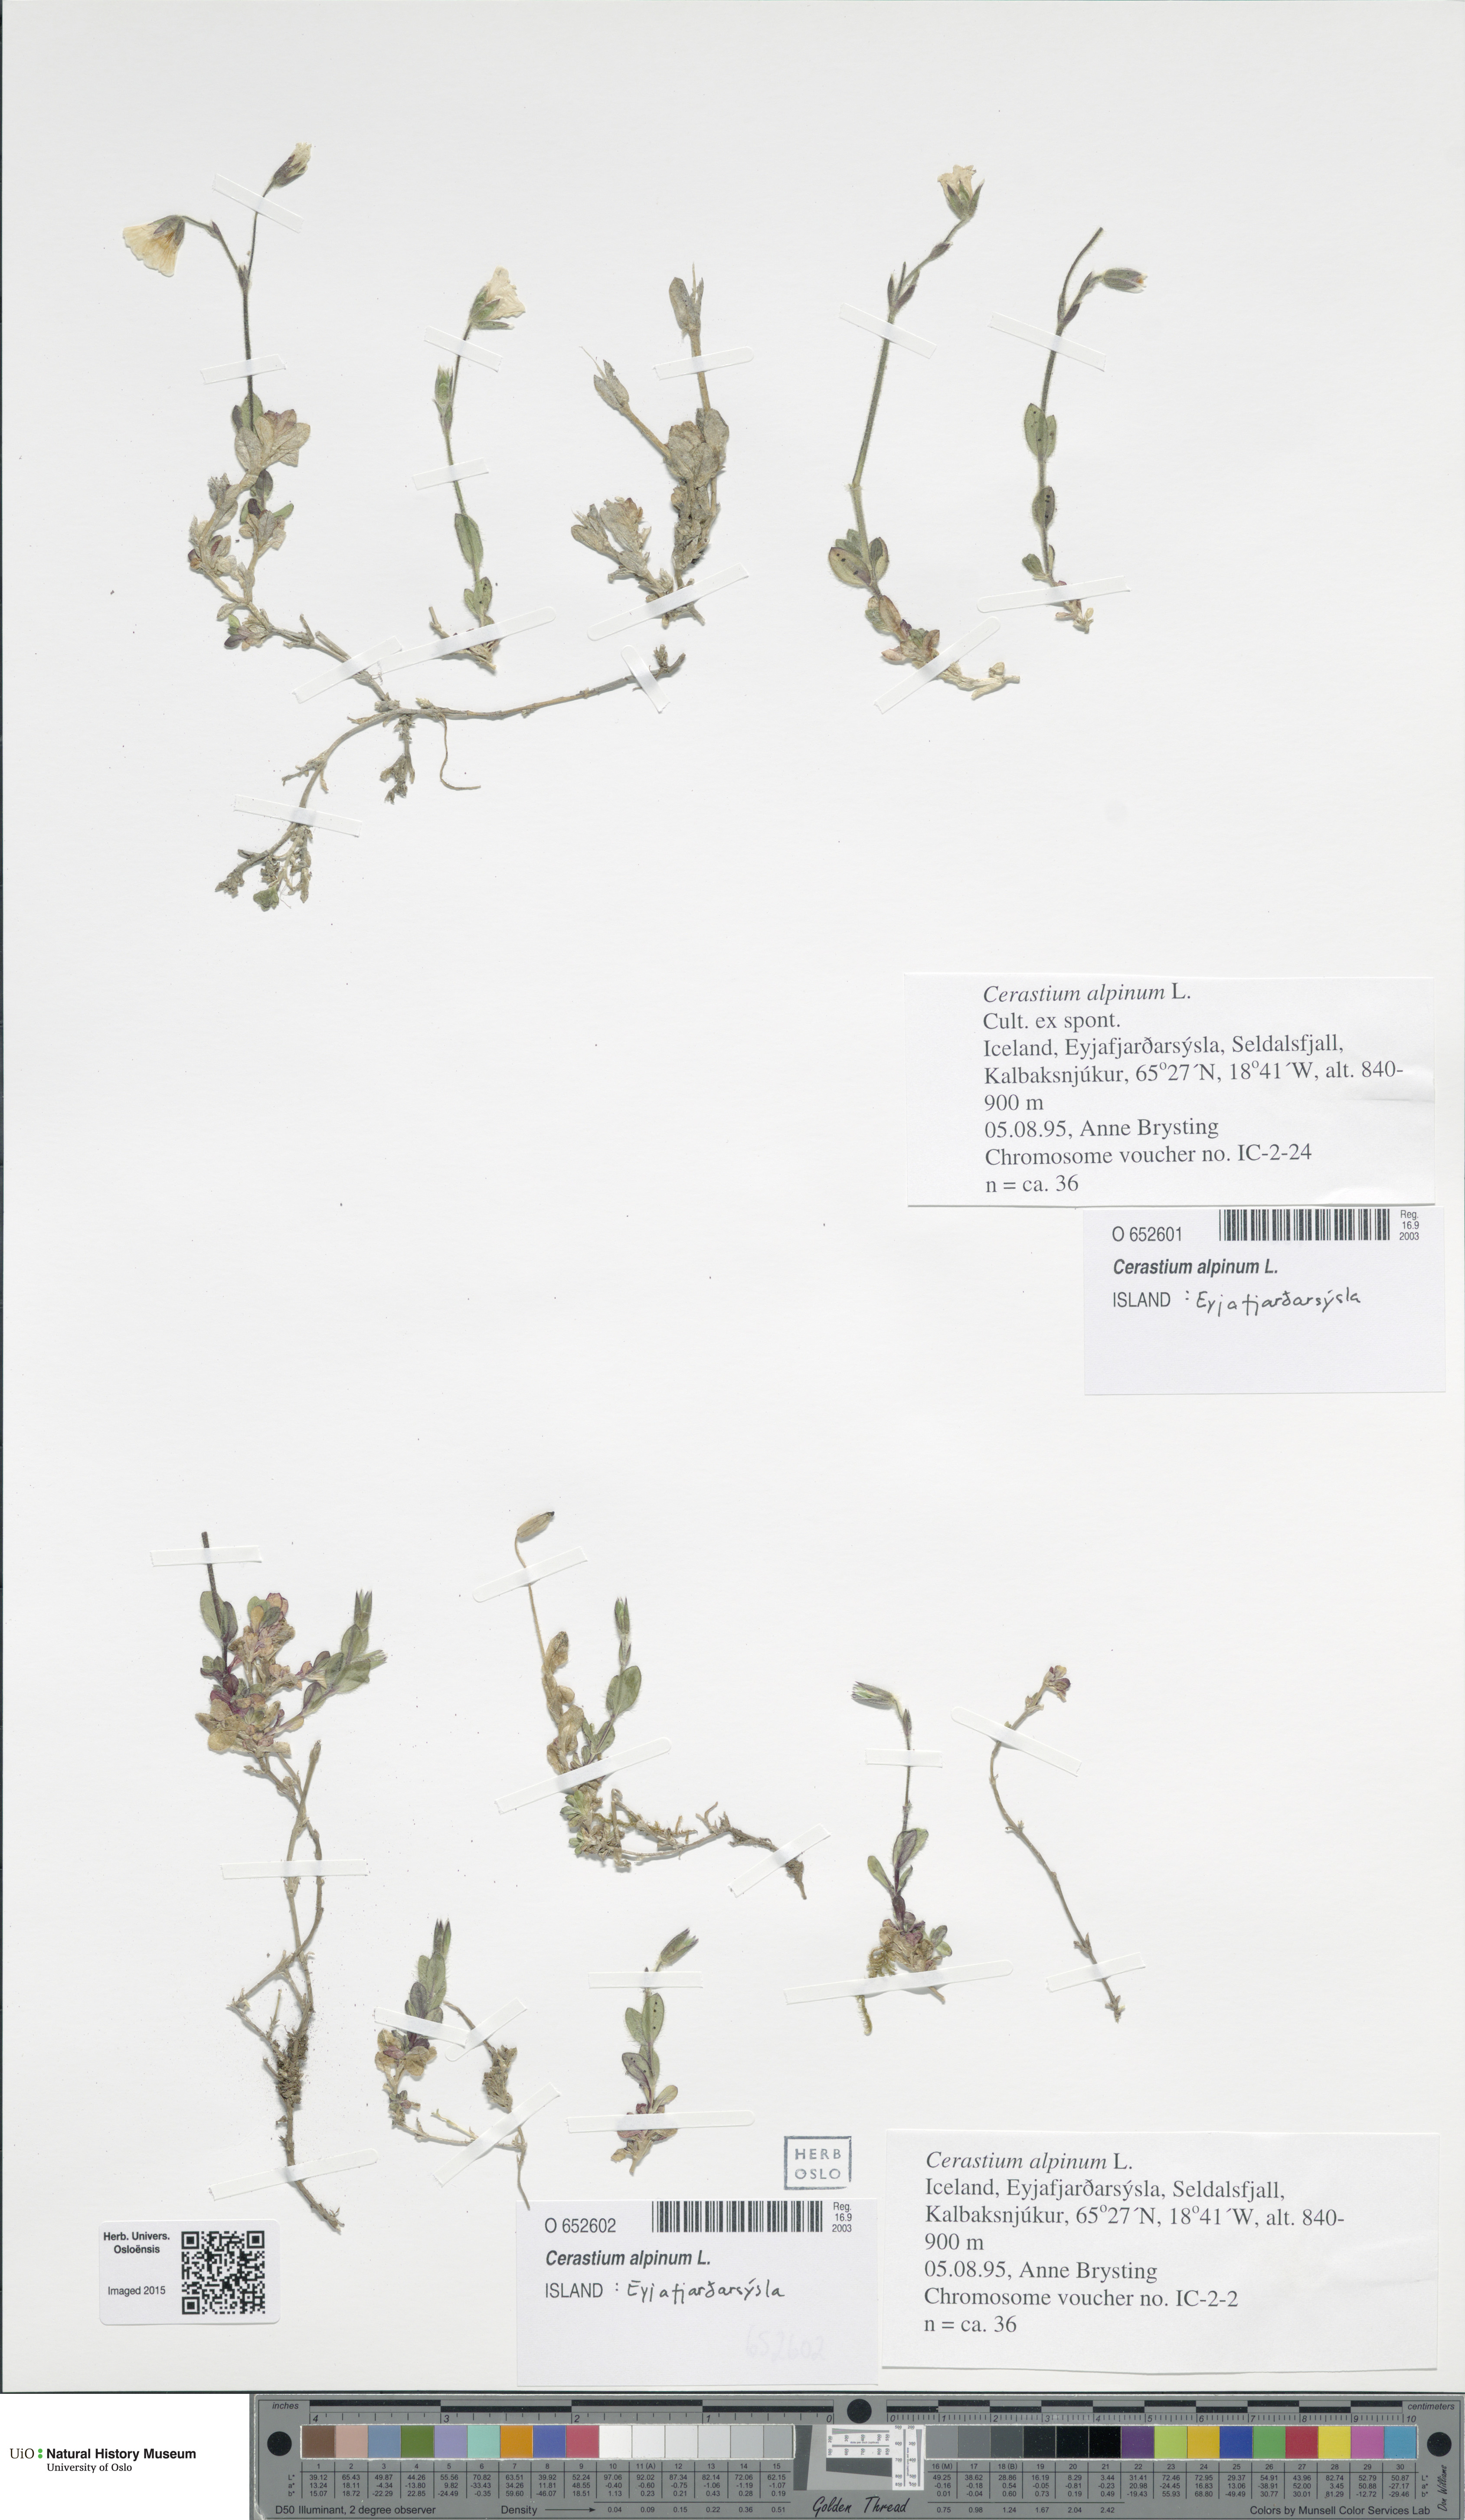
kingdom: Plantae
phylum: Tracheophyta
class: Magnoliopsida
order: Caryophyllales
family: Caryophyllaceae
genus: Cerastium
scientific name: Cerastium alpinum
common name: Alpine mouse-ear
